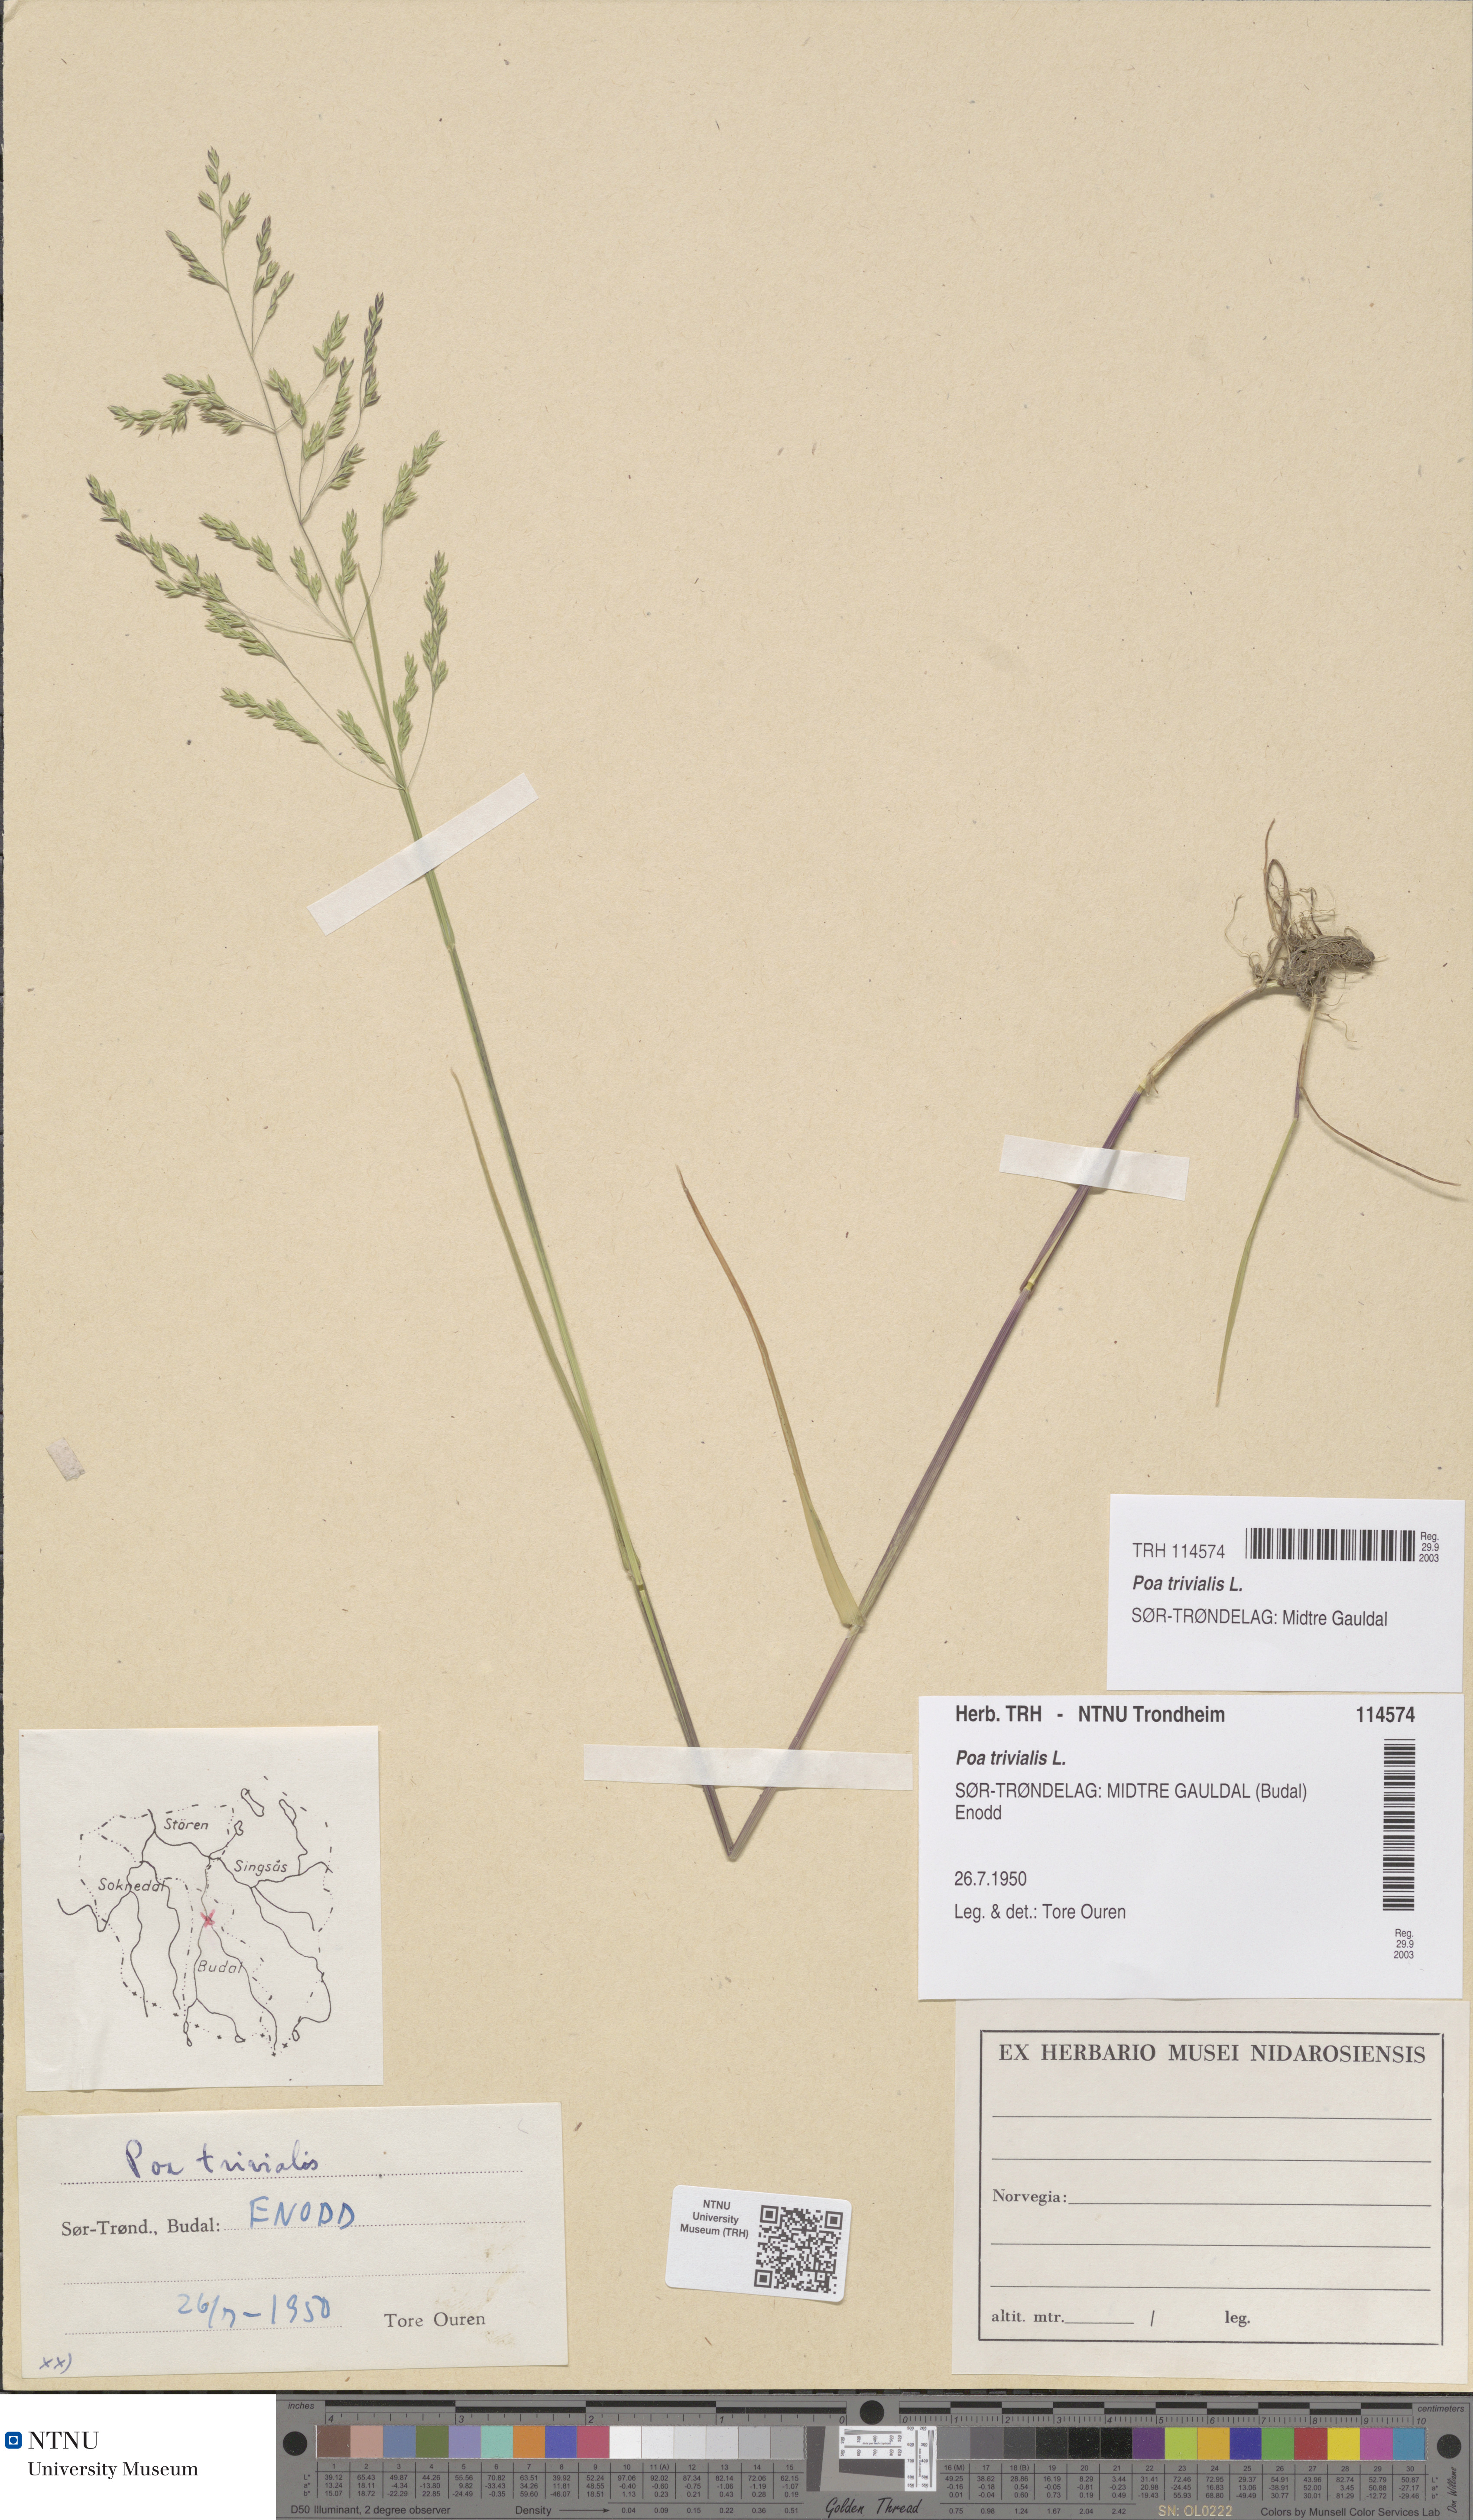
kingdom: Plantae
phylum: Tracheophyta
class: Liliopsida
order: Poales
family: Poaceae
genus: Poa
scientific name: Poa trivialis
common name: Rough bluegrass
